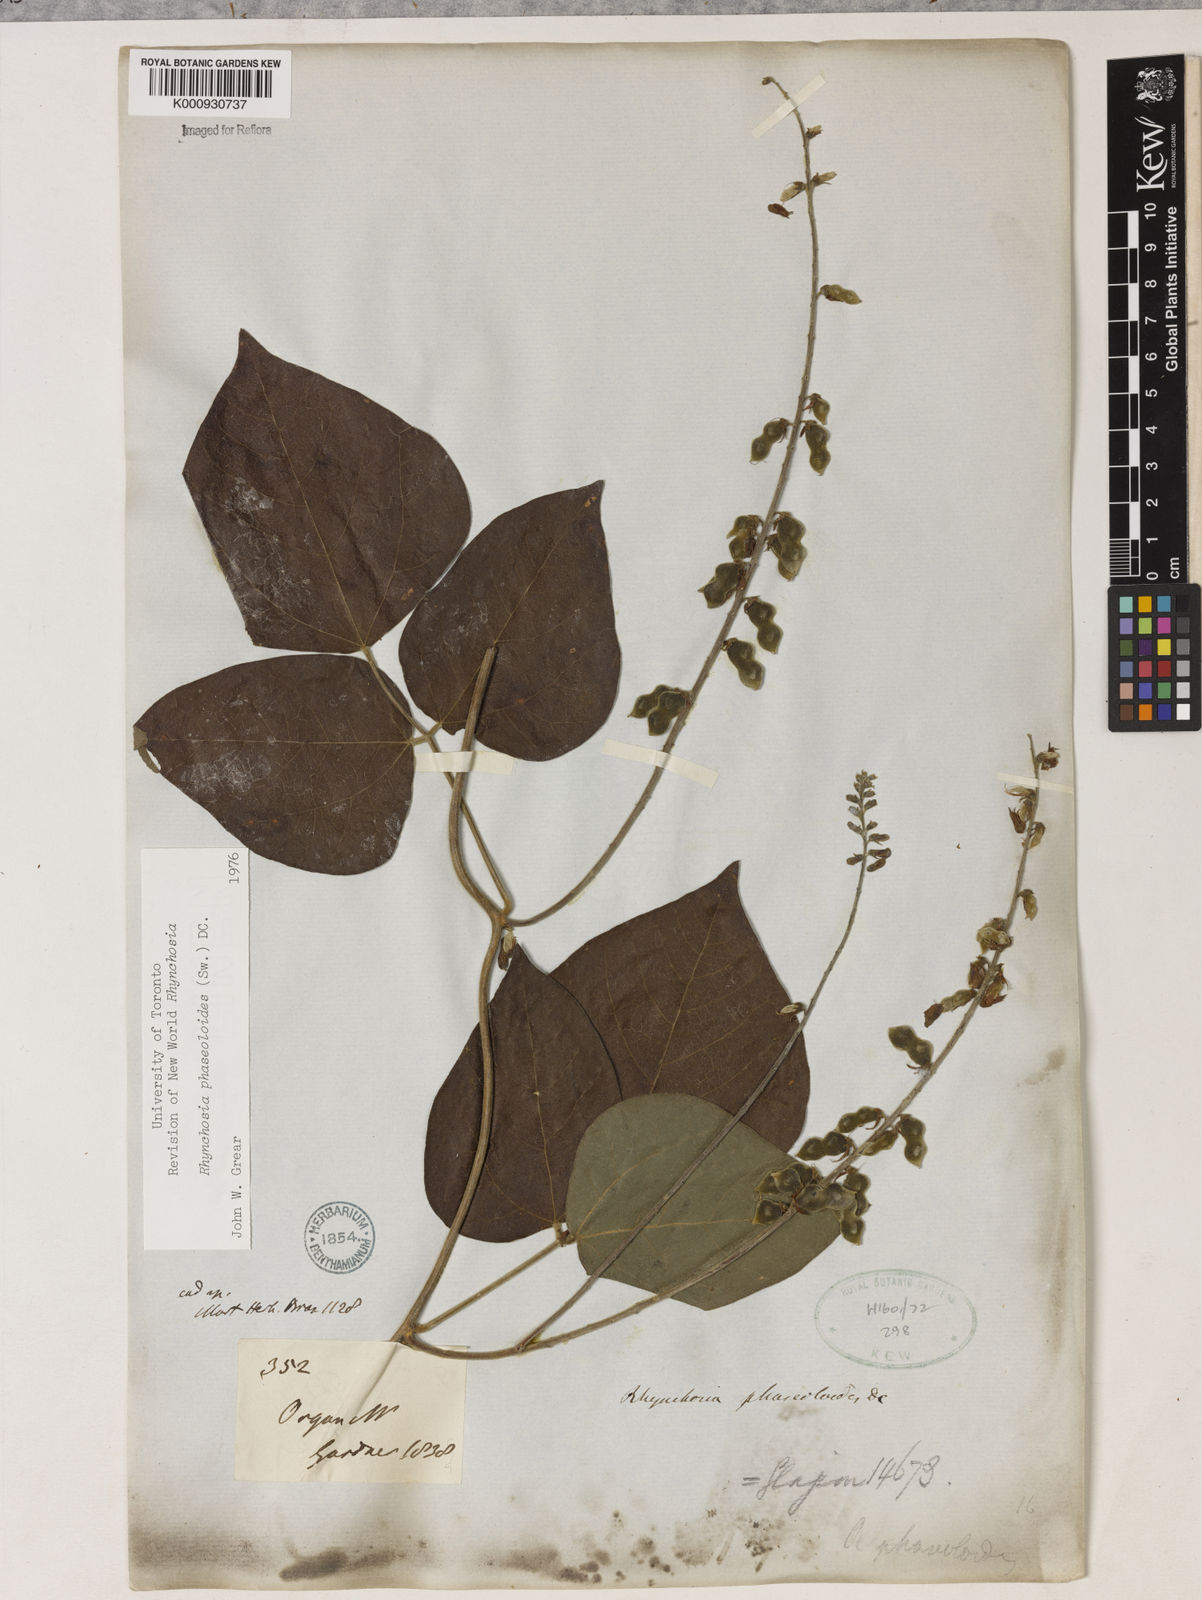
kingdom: Plantae
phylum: Tracheophyta
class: Magnoliopsida
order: Fabales
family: Fabaceae
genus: Rhynchosia
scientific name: Rhynchosia phaseoloides
